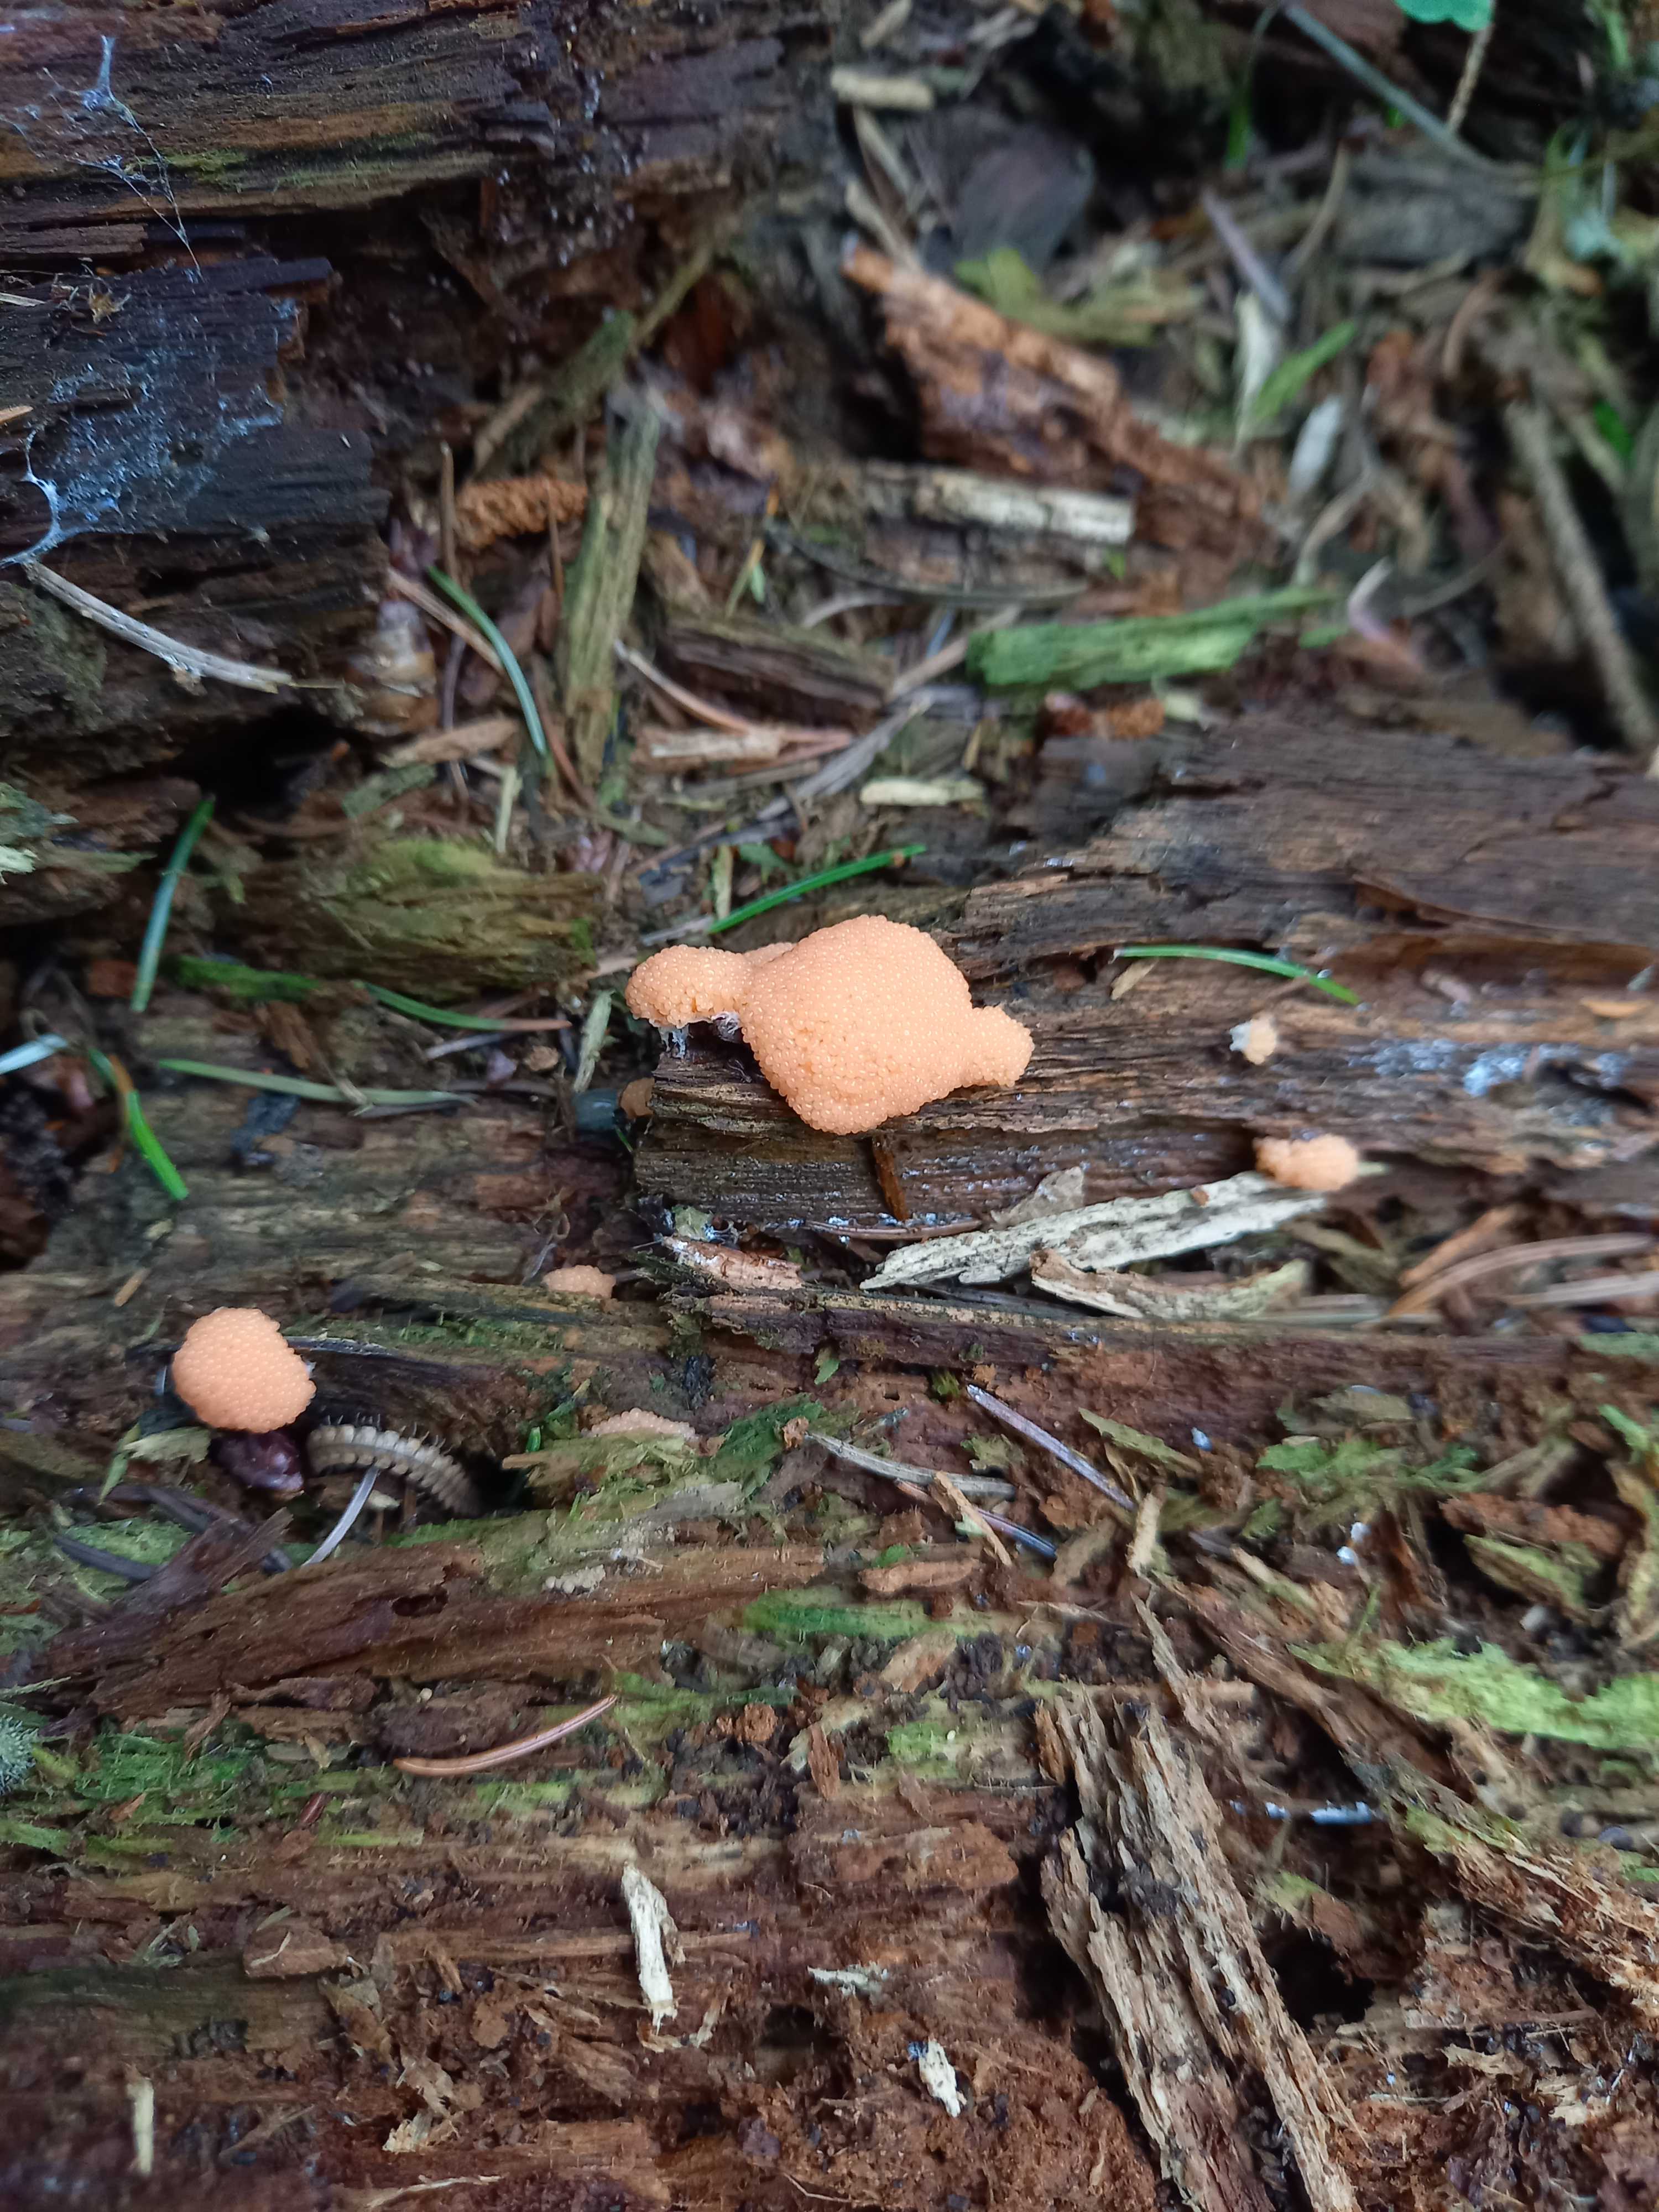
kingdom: Protozoa
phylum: Mycetozoa
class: Myxomycetes
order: Cribrariales
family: Tubiferaceae
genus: Tubifera
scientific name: Tubifera ferruginosa
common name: kanel-støvrør
